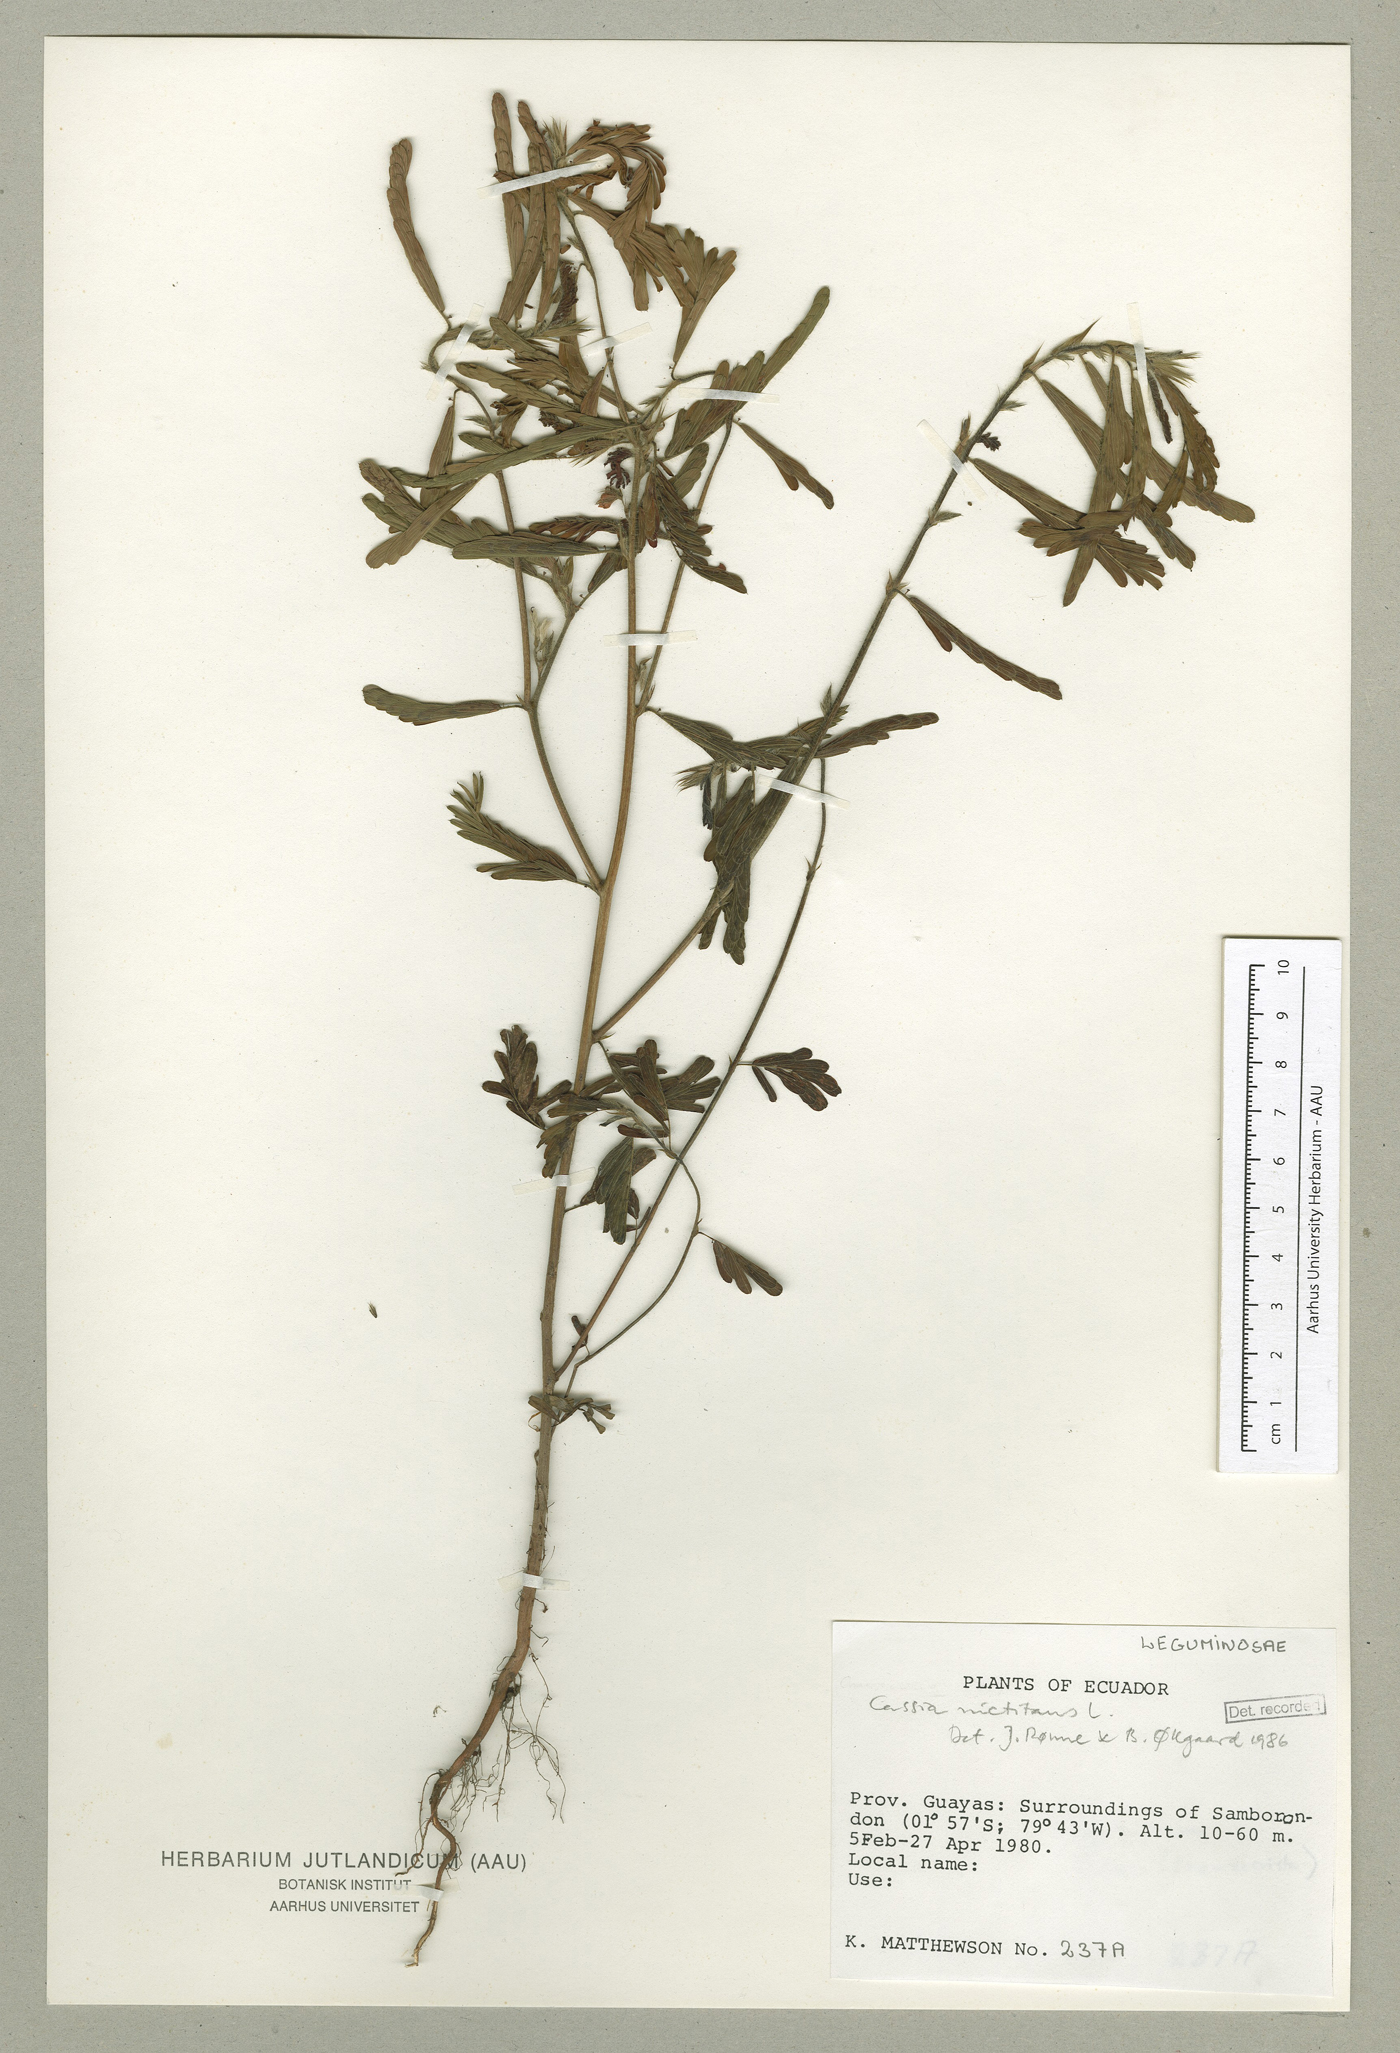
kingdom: Plantae
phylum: Tracheophyta
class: Magnoliopsida
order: Fabales
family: Fabaceae
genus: Chamaecrista
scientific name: Chamaecrista nictitans
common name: Sensitive cassia
